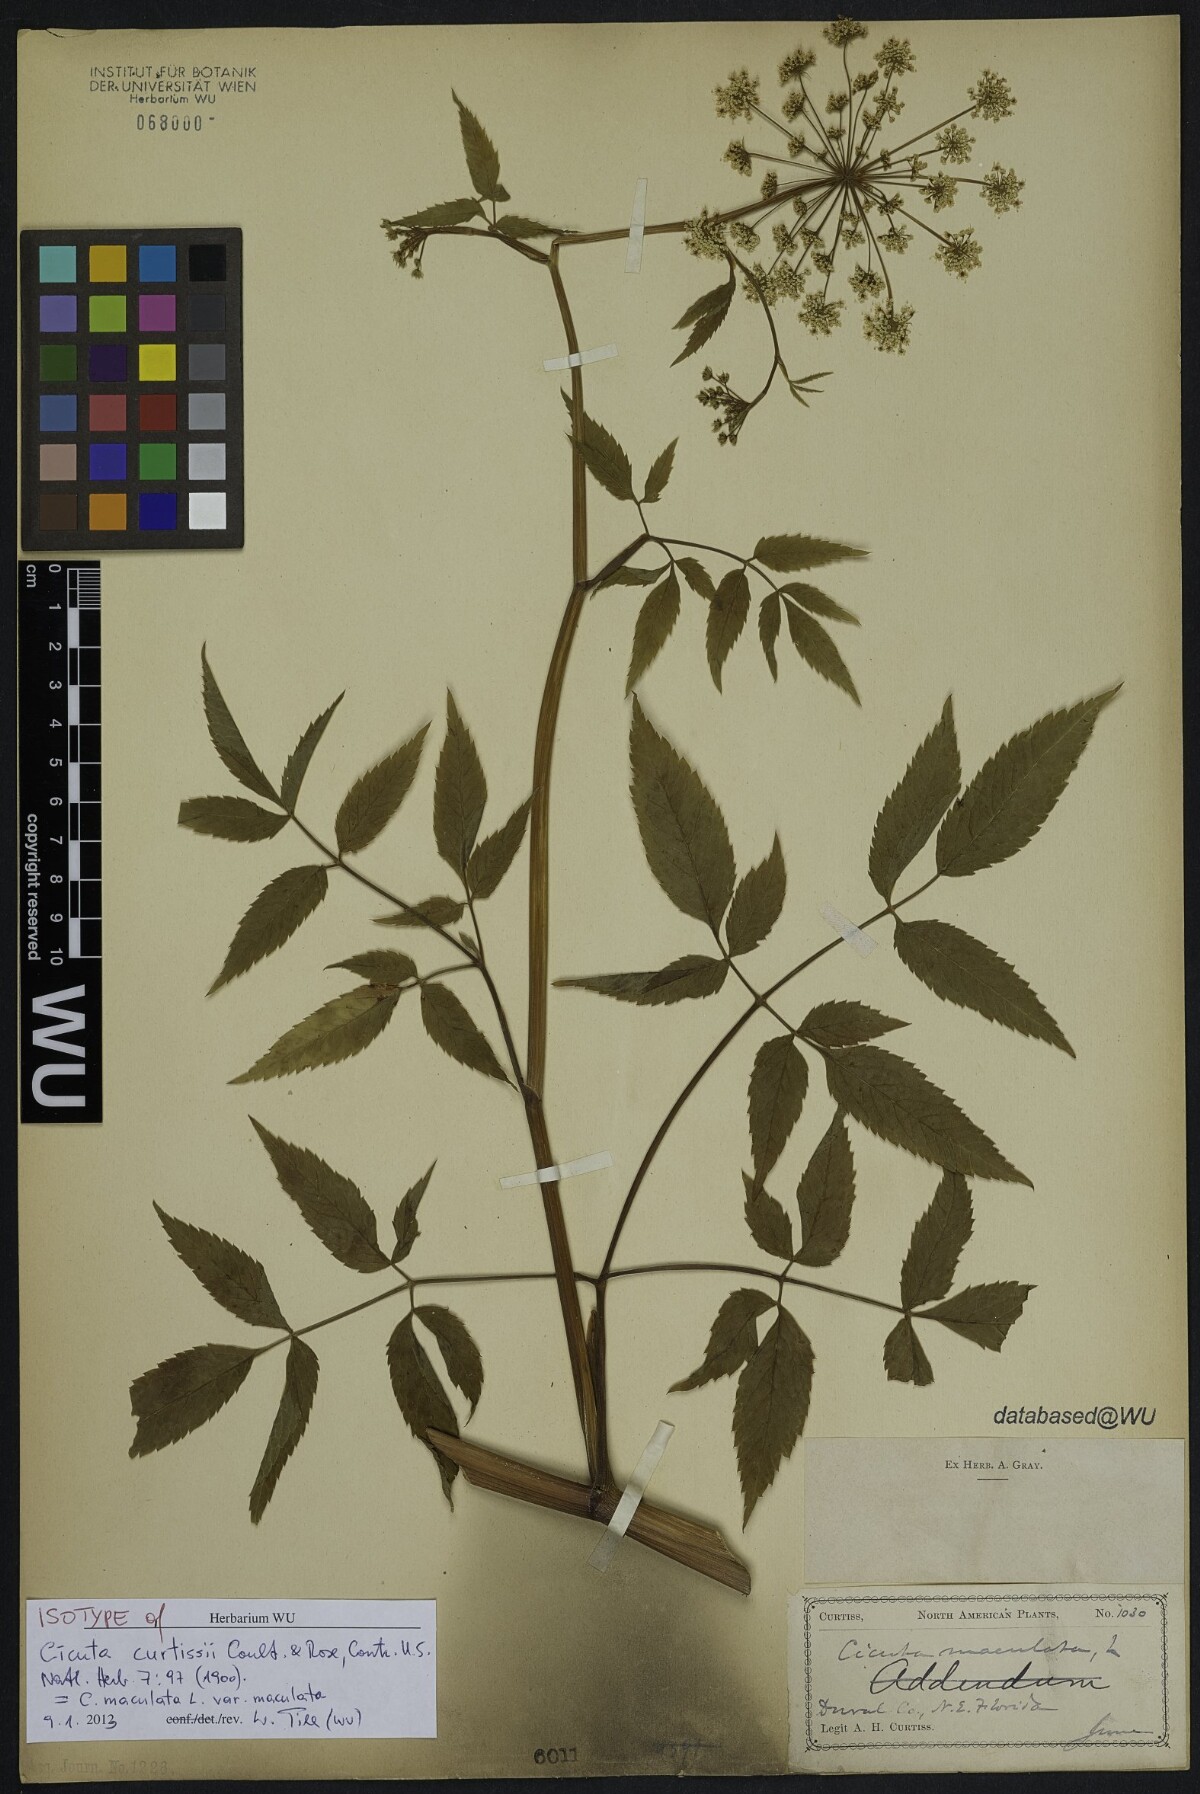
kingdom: Plantae
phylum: Tracheophyta
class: Magnoliopsida
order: Apiales
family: Apiaceae
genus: Cicuta
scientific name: Cicuta maculata
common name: Spotted cowbane
